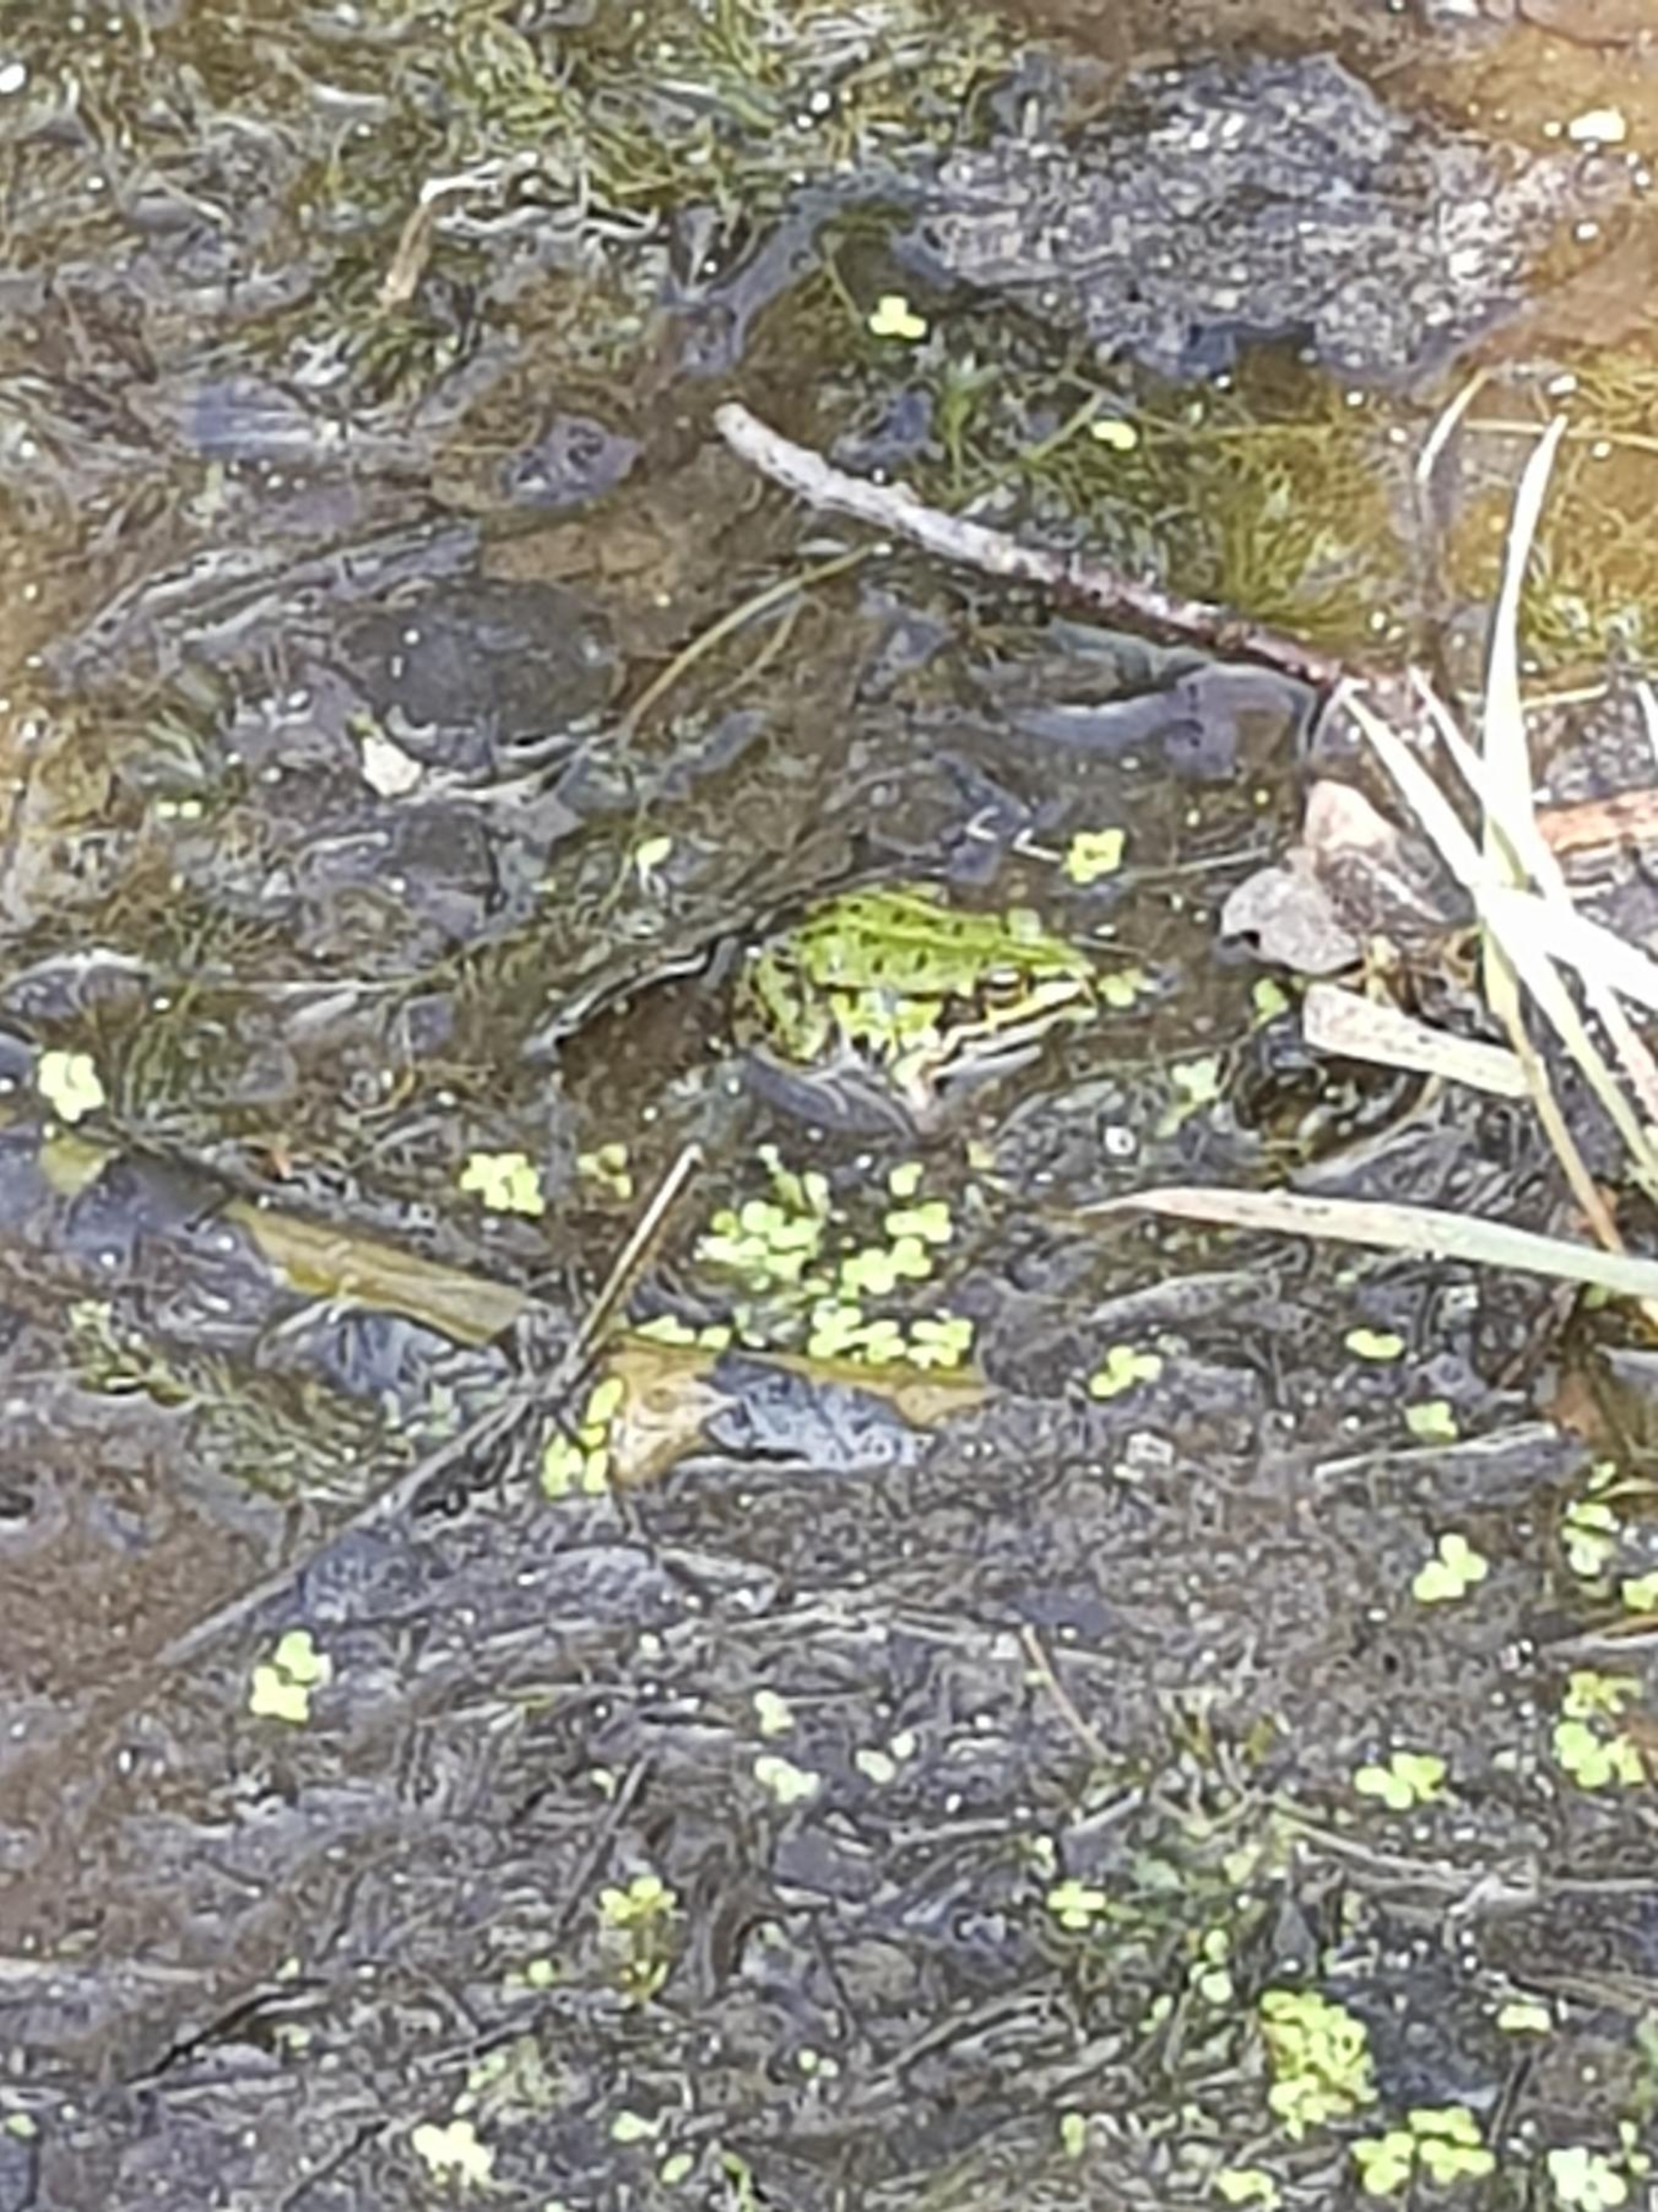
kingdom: Animalia
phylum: Chordata
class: Amphibia
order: Anura
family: Ranidae
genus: Pelophylax
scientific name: Pelophylax lessonae
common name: Grøn frø
